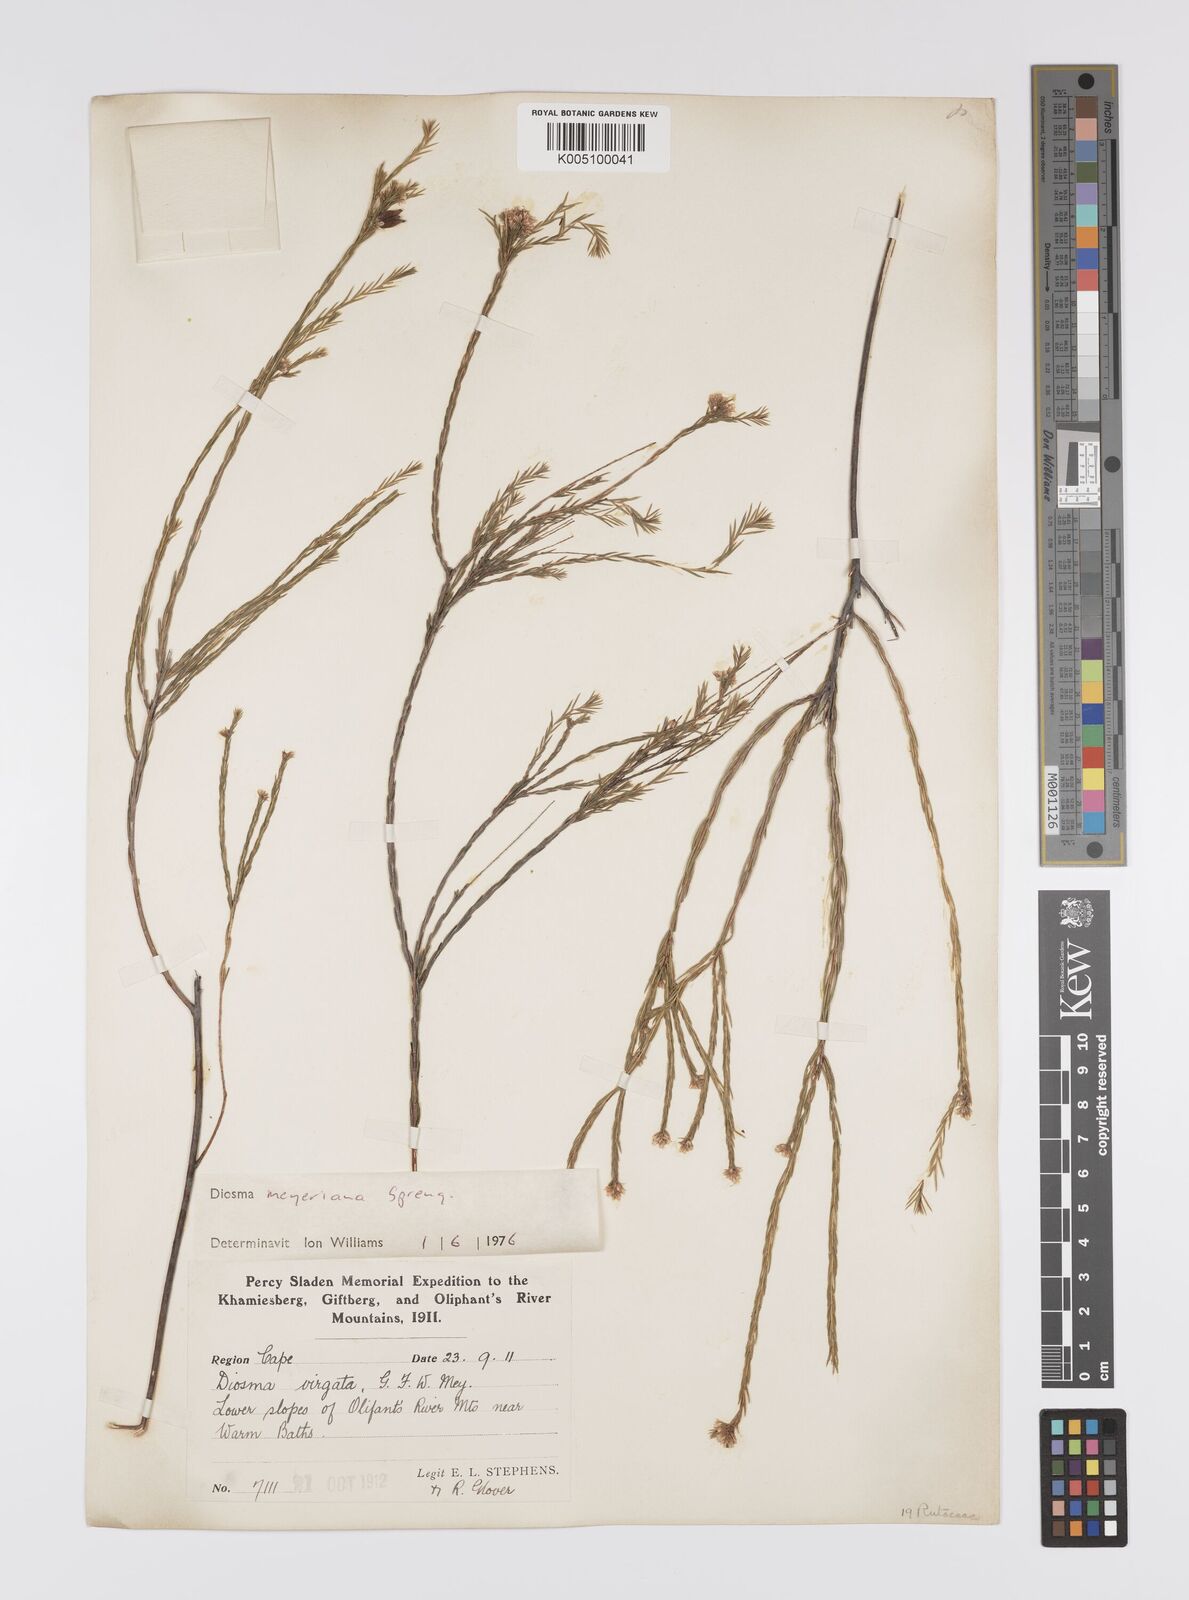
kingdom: Plantae
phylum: Tracheophyta
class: Magnoliopsida
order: Sapindales
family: Rutaceae
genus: Agathosma
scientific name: Agathosma virgata
